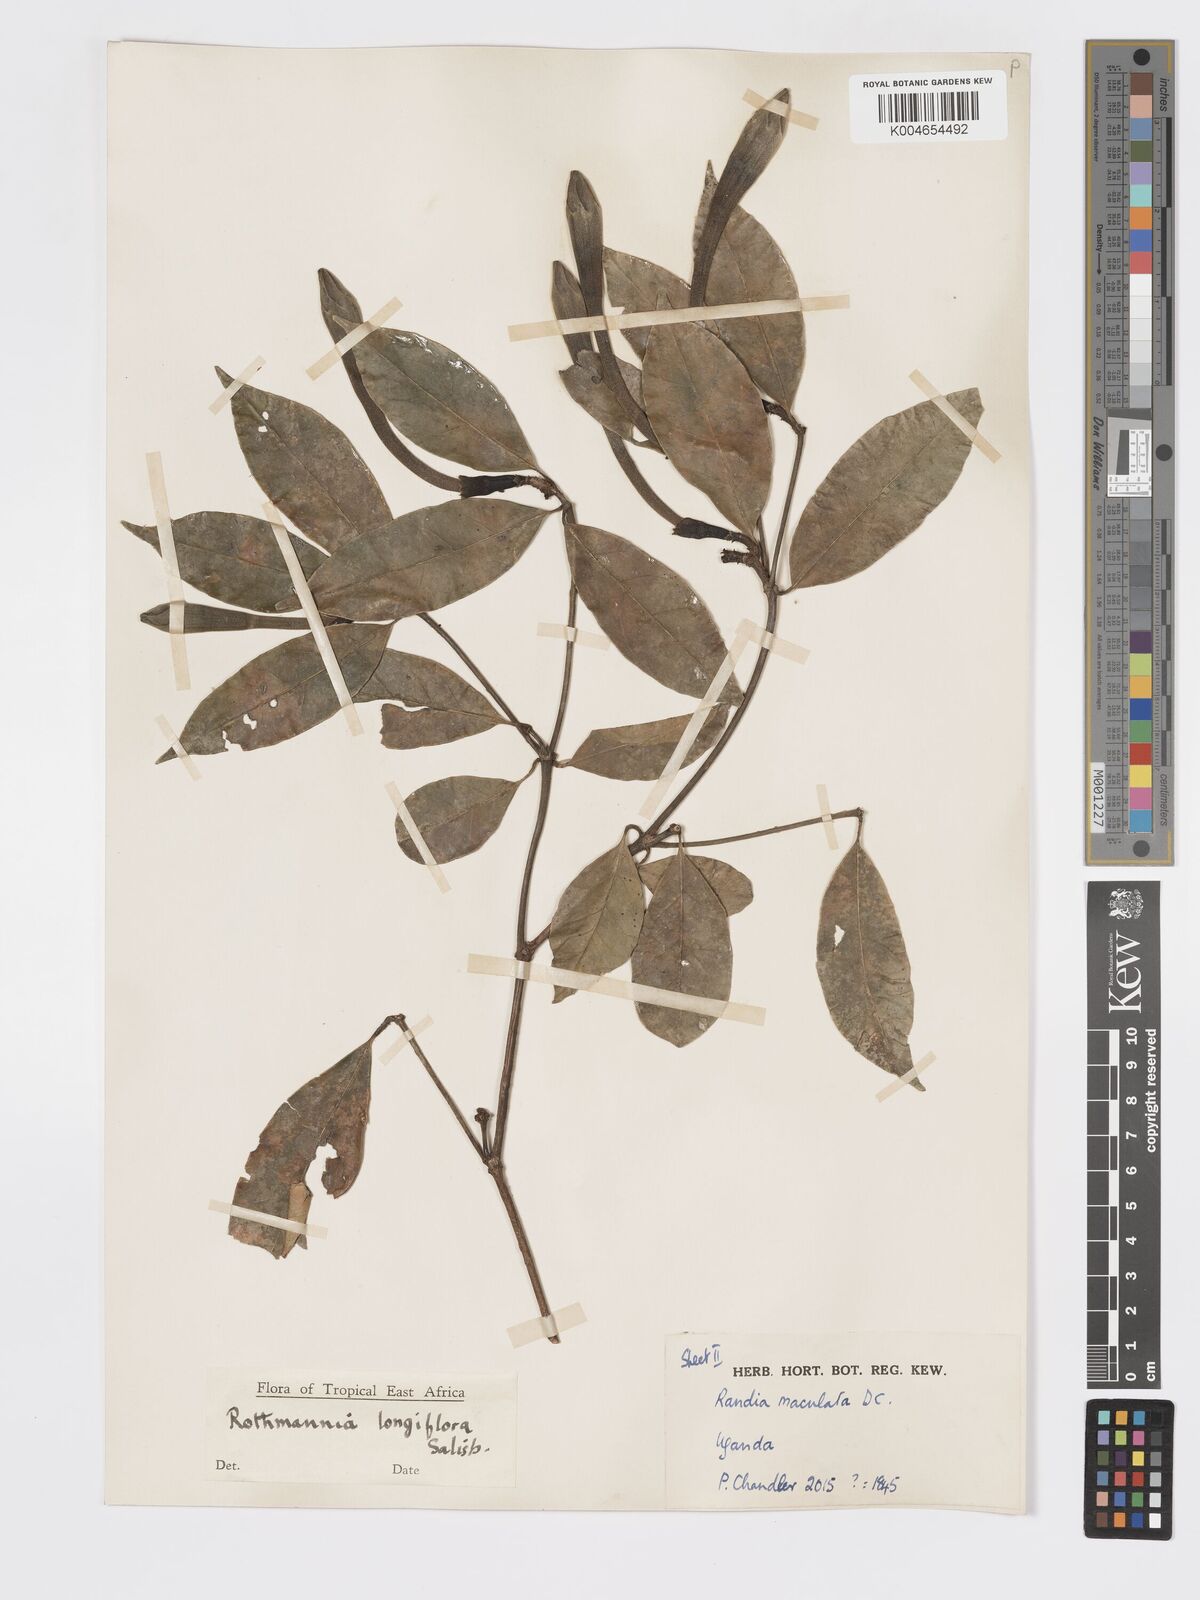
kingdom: Plantae
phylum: Tracheophyta
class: Magnoliopsida
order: Gentianales
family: Rubiaceae
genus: Rothmannia
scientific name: Rothmannia longiflora
